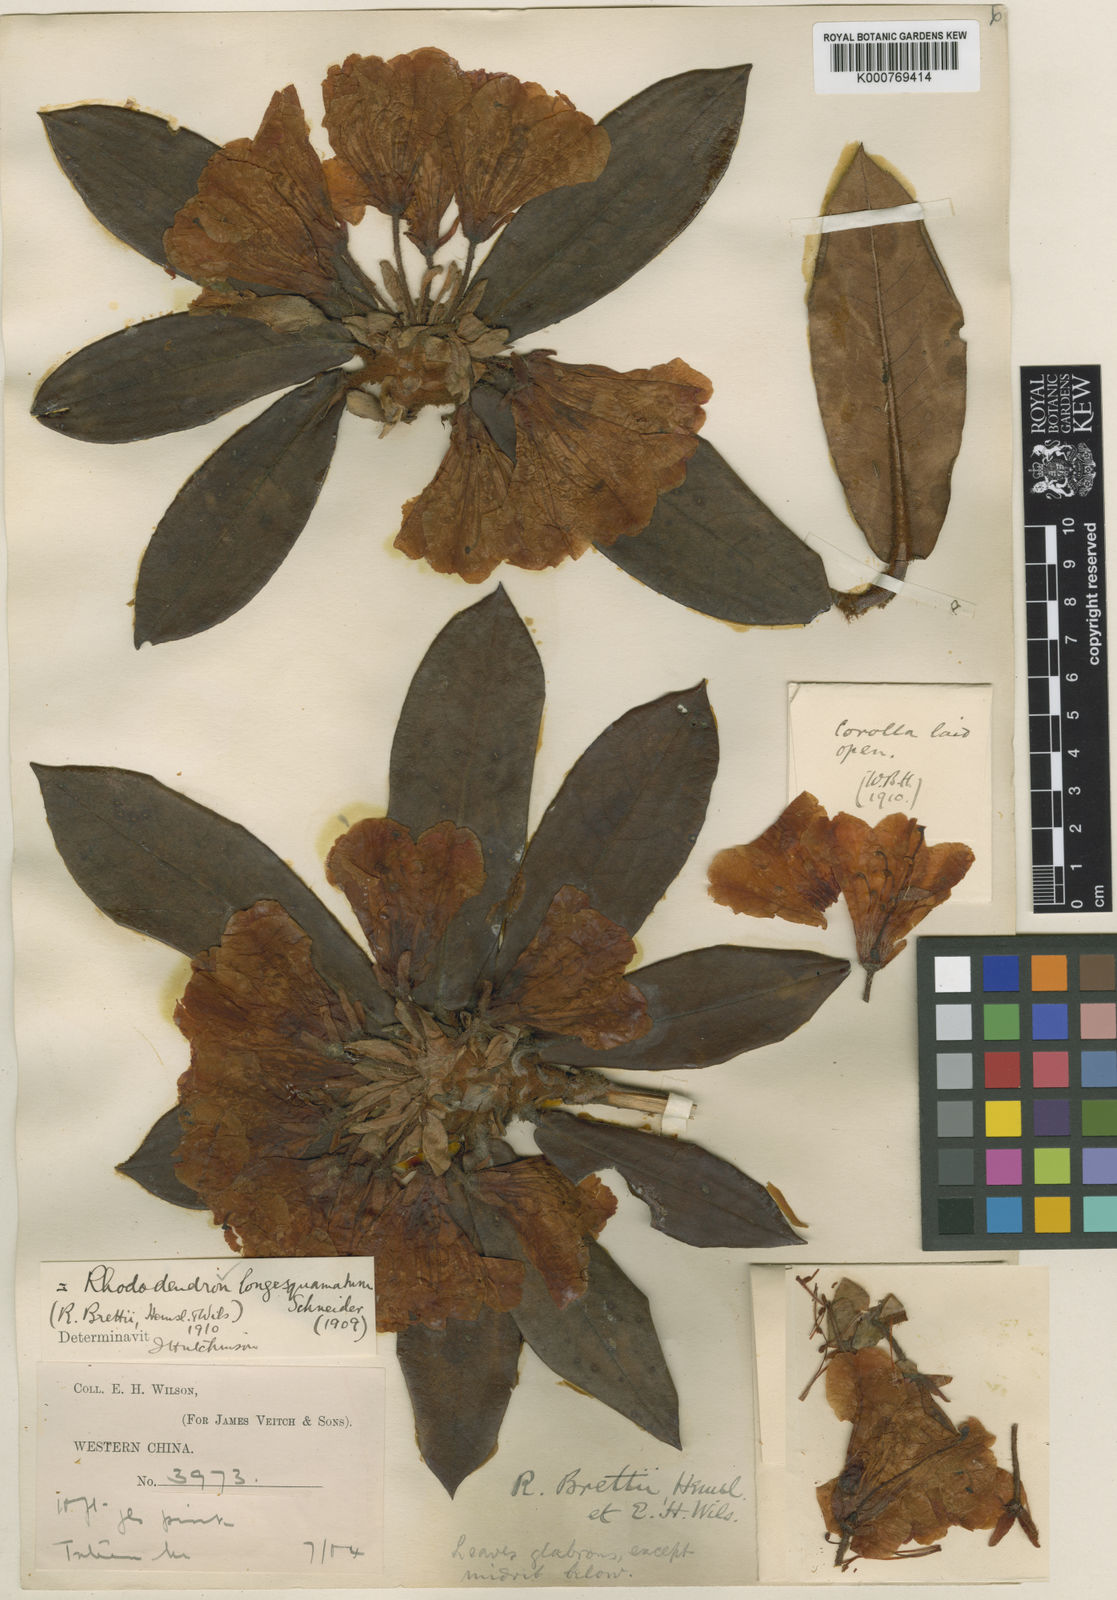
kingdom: Plantae
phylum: Tracheophyta
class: Magnoliopsida
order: Ericales
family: Ericaceae
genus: Rhododendron
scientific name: Rhododendron longesquamatum
